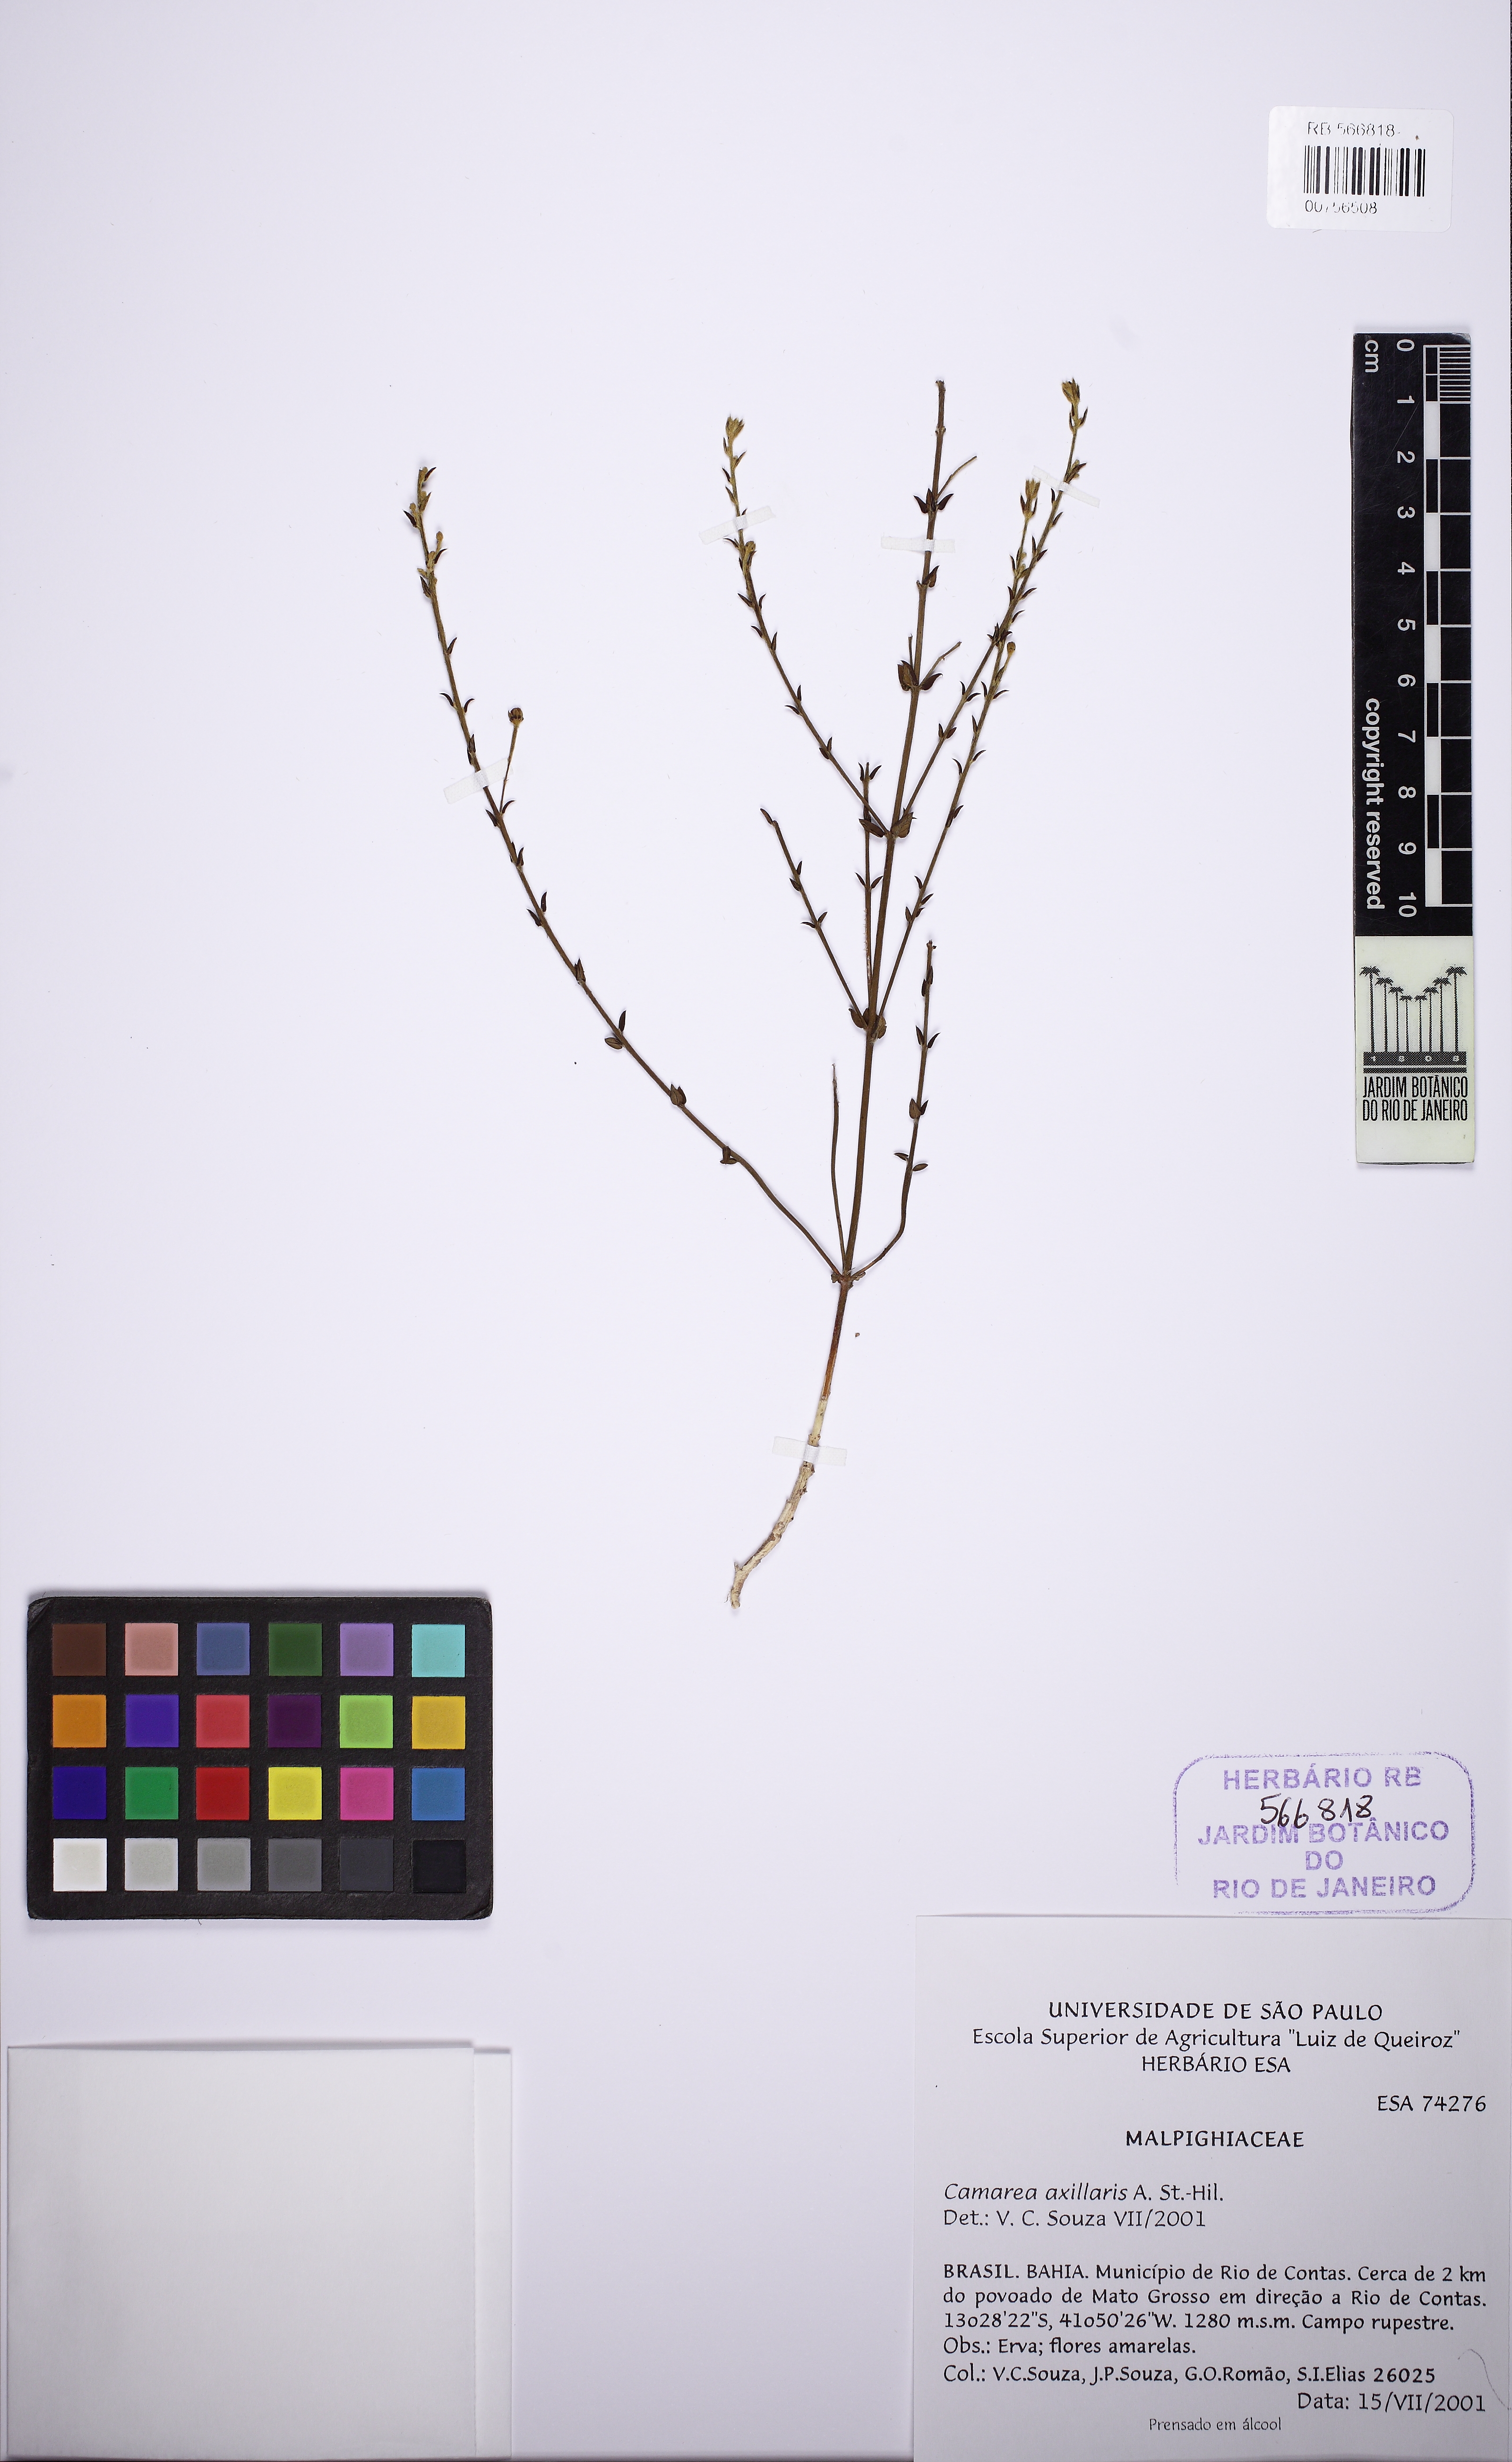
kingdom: Plantae
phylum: Tracheophyta
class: Magnoliopsida
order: Malpighiales
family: Malpighiaceae
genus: Camarea
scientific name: Camarea axillaris
